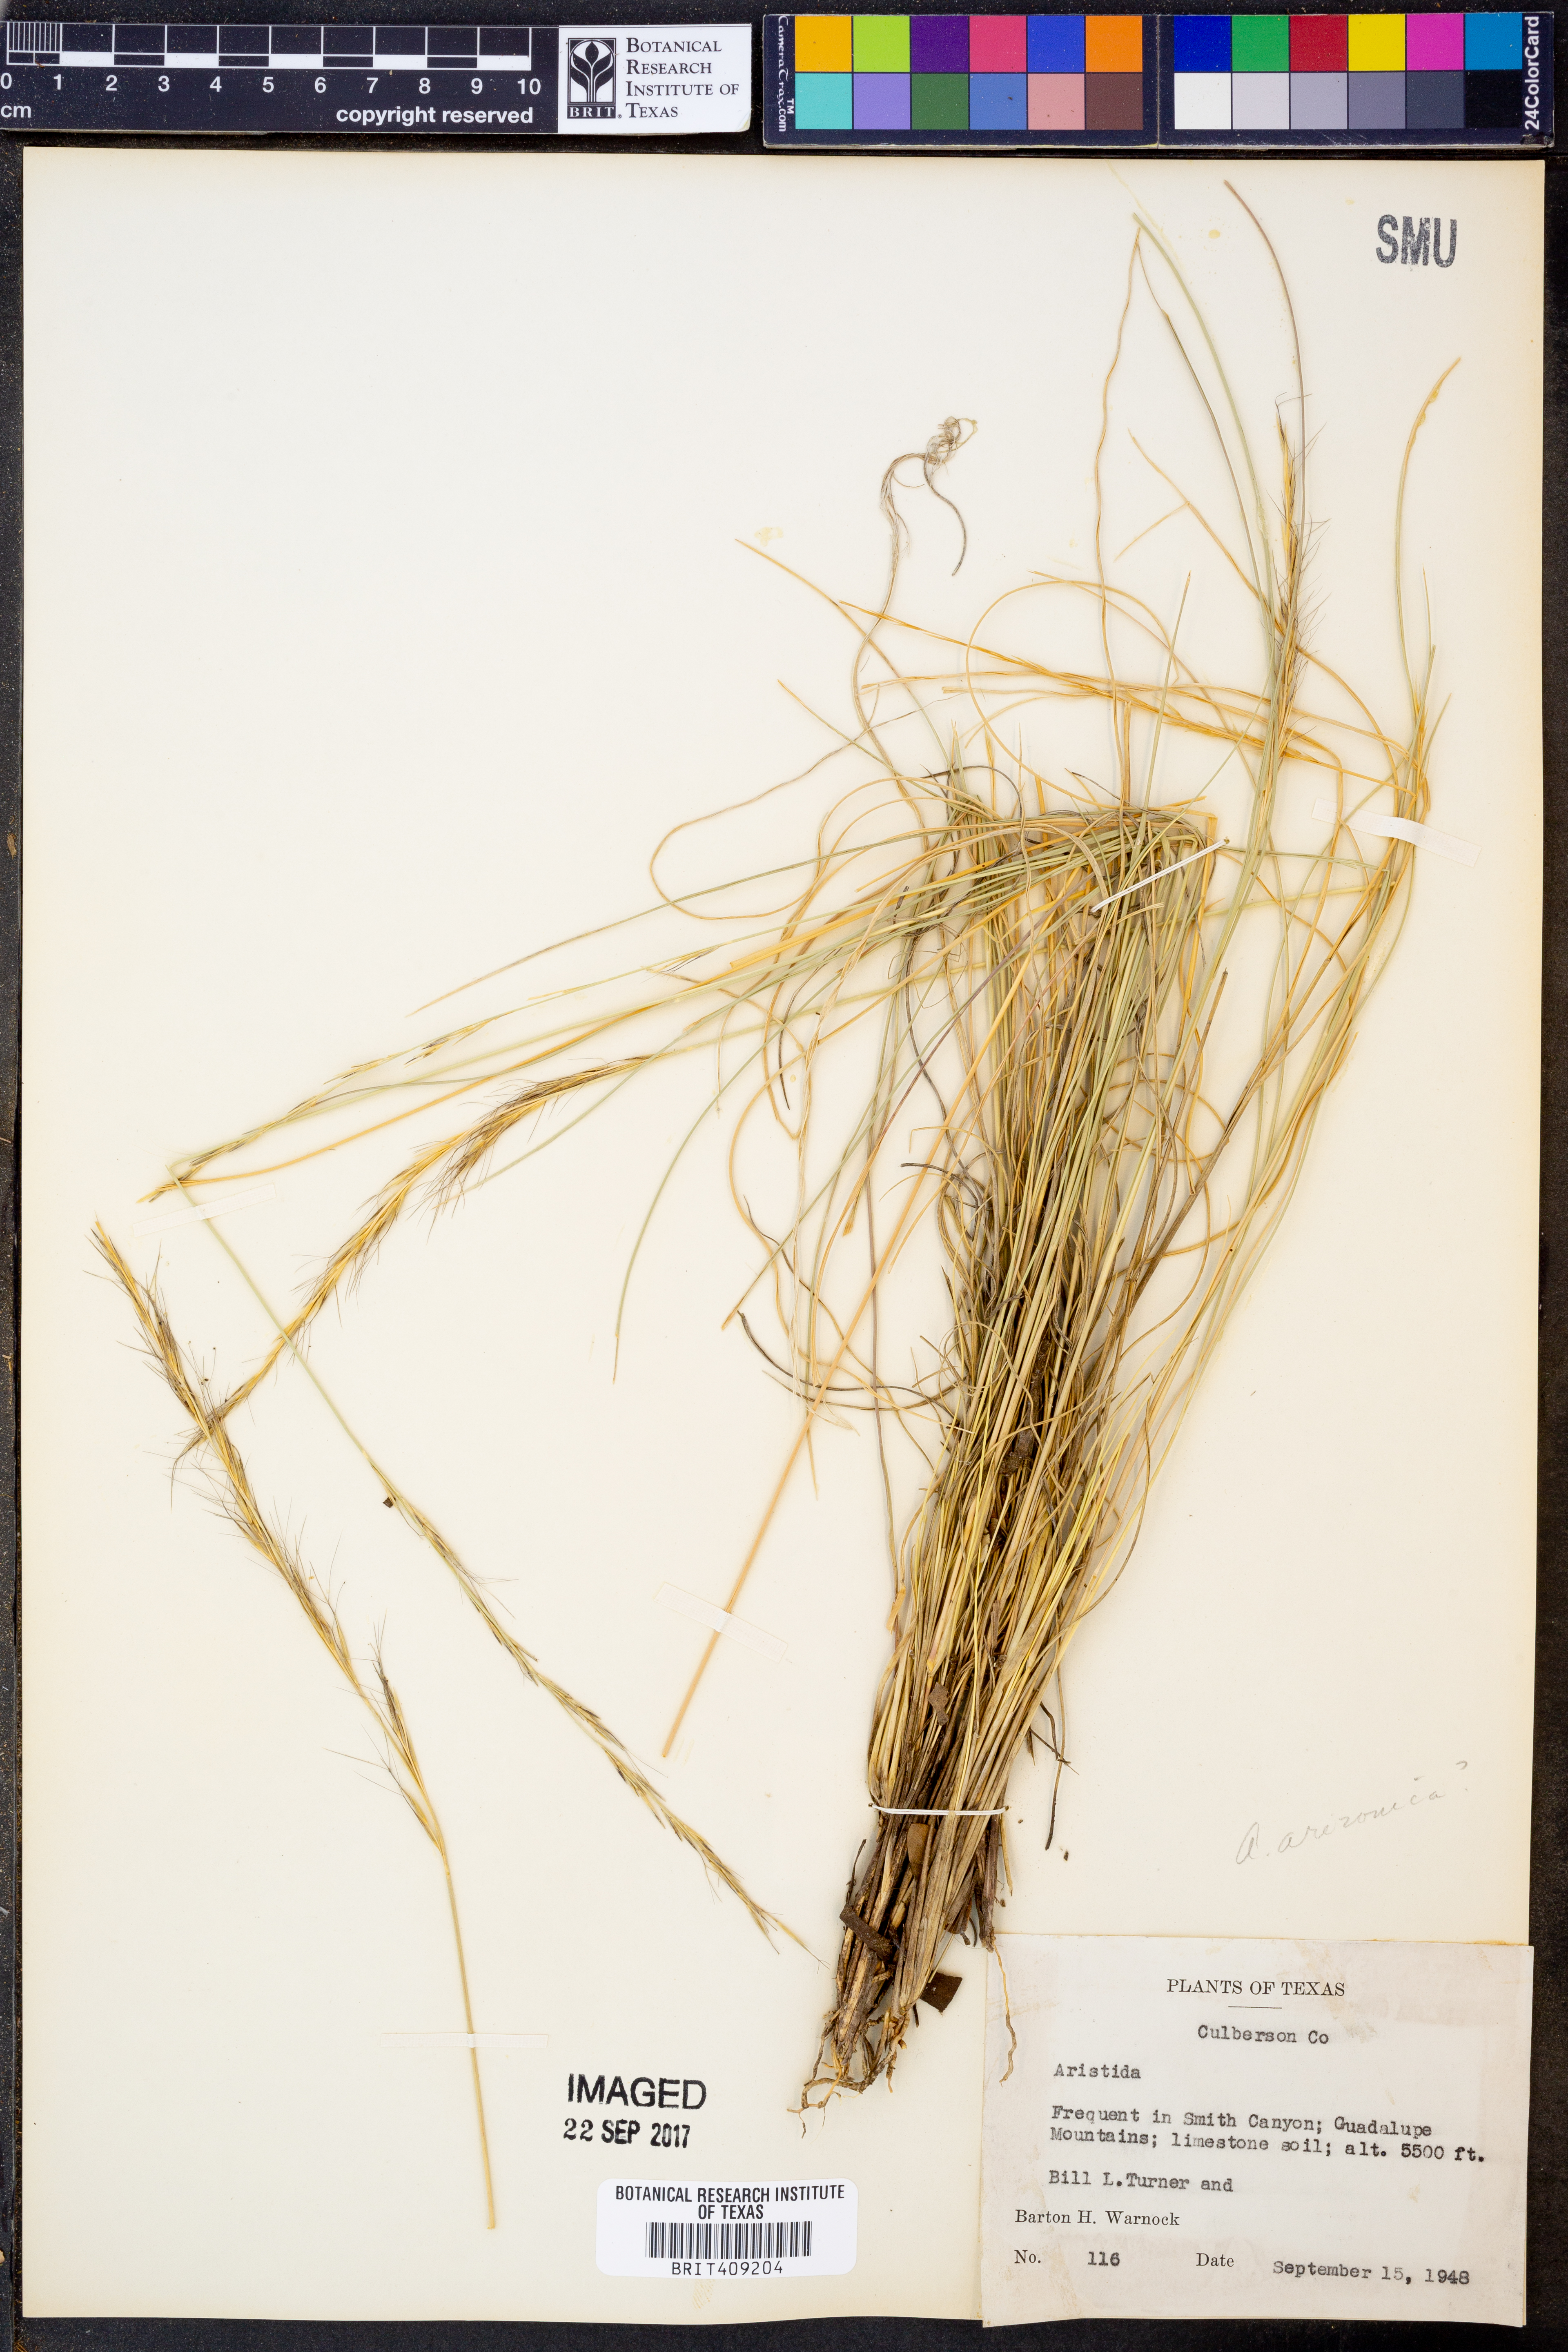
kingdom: Plantae
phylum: Tracheophyta
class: Liliopsida
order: Poales
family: Poaceae
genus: Aristida
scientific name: Aristida
